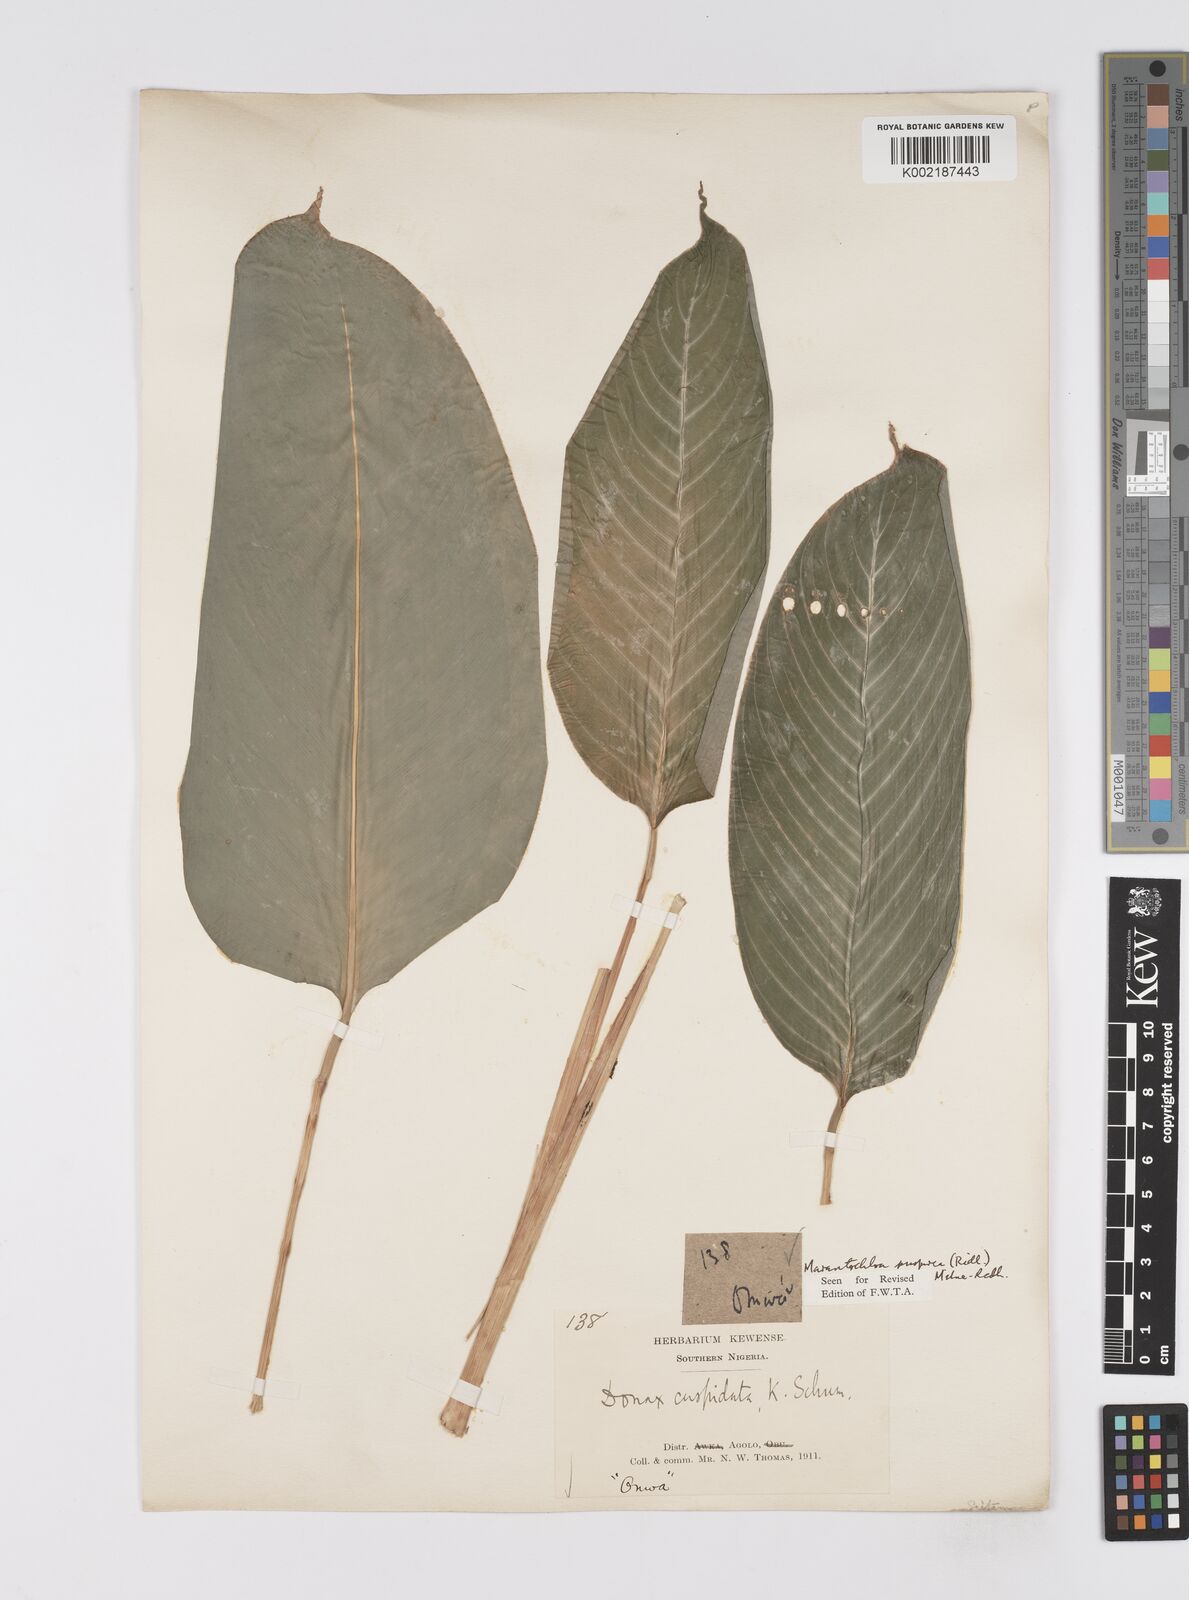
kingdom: Plantae
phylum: Tracheophyta
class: Liliopsida
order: Zingiberales
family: Marantaceae
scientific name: Marantaceae
